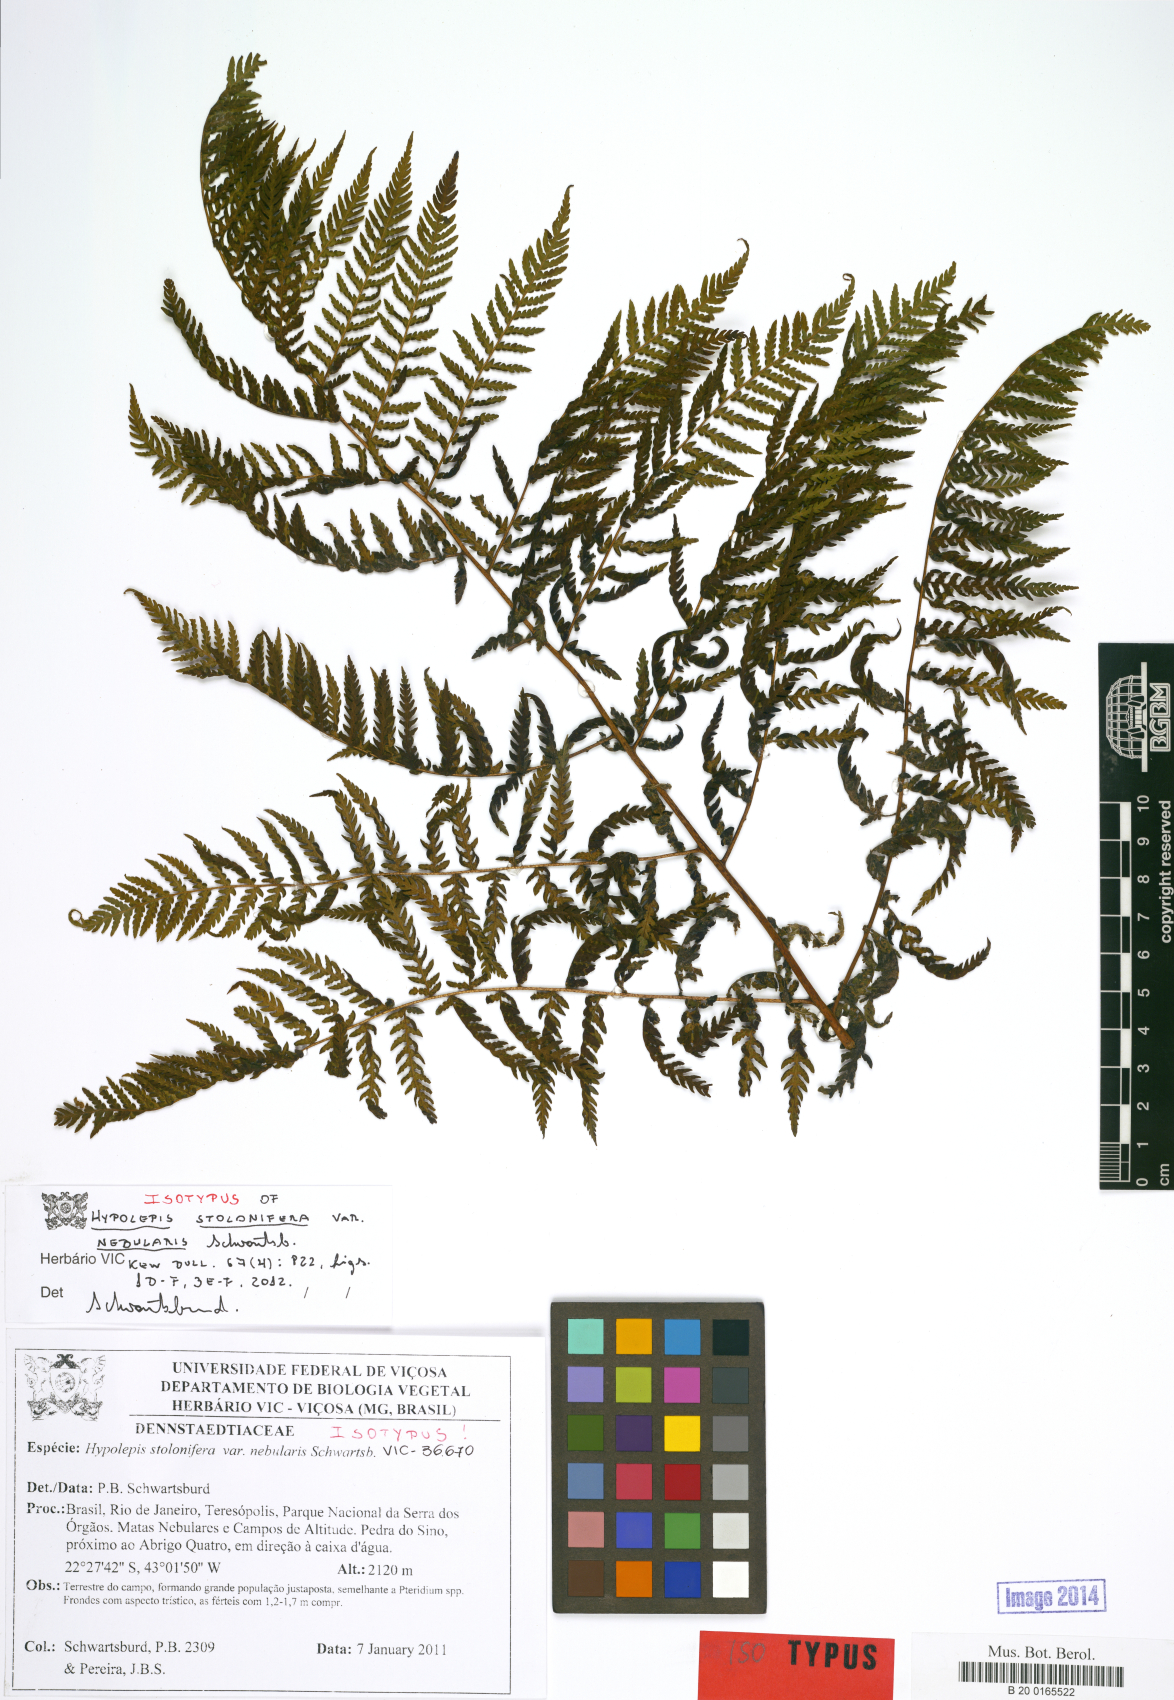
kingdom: Plantae
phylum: Tracheophyta
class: Polypodiopsida
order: Polypodiales
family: Dennstaedtiaceae
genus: Hypolepis
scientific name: Hypolepis stolonifera
